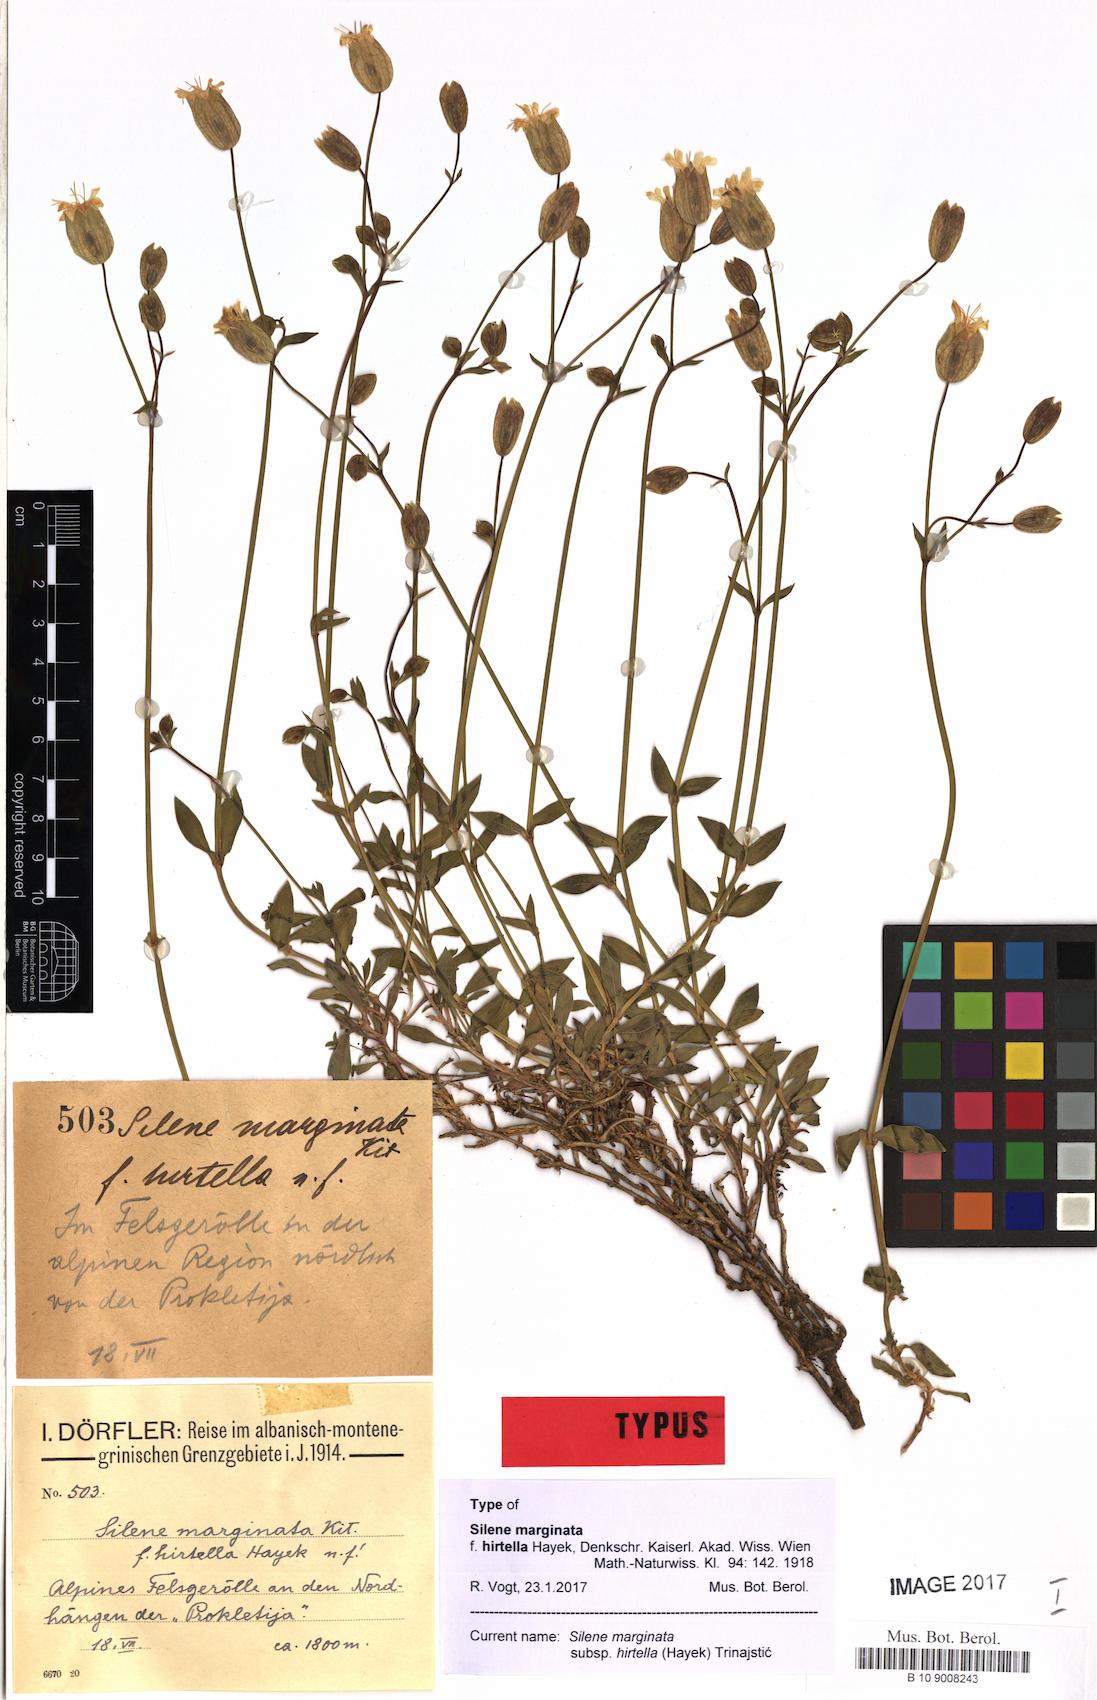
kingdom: Plantae
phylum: Tracheophyta
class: Magnoliopsida
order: Caryophyllales
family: Caryophyllaceae
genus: Silene
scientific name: Silene glareosa
